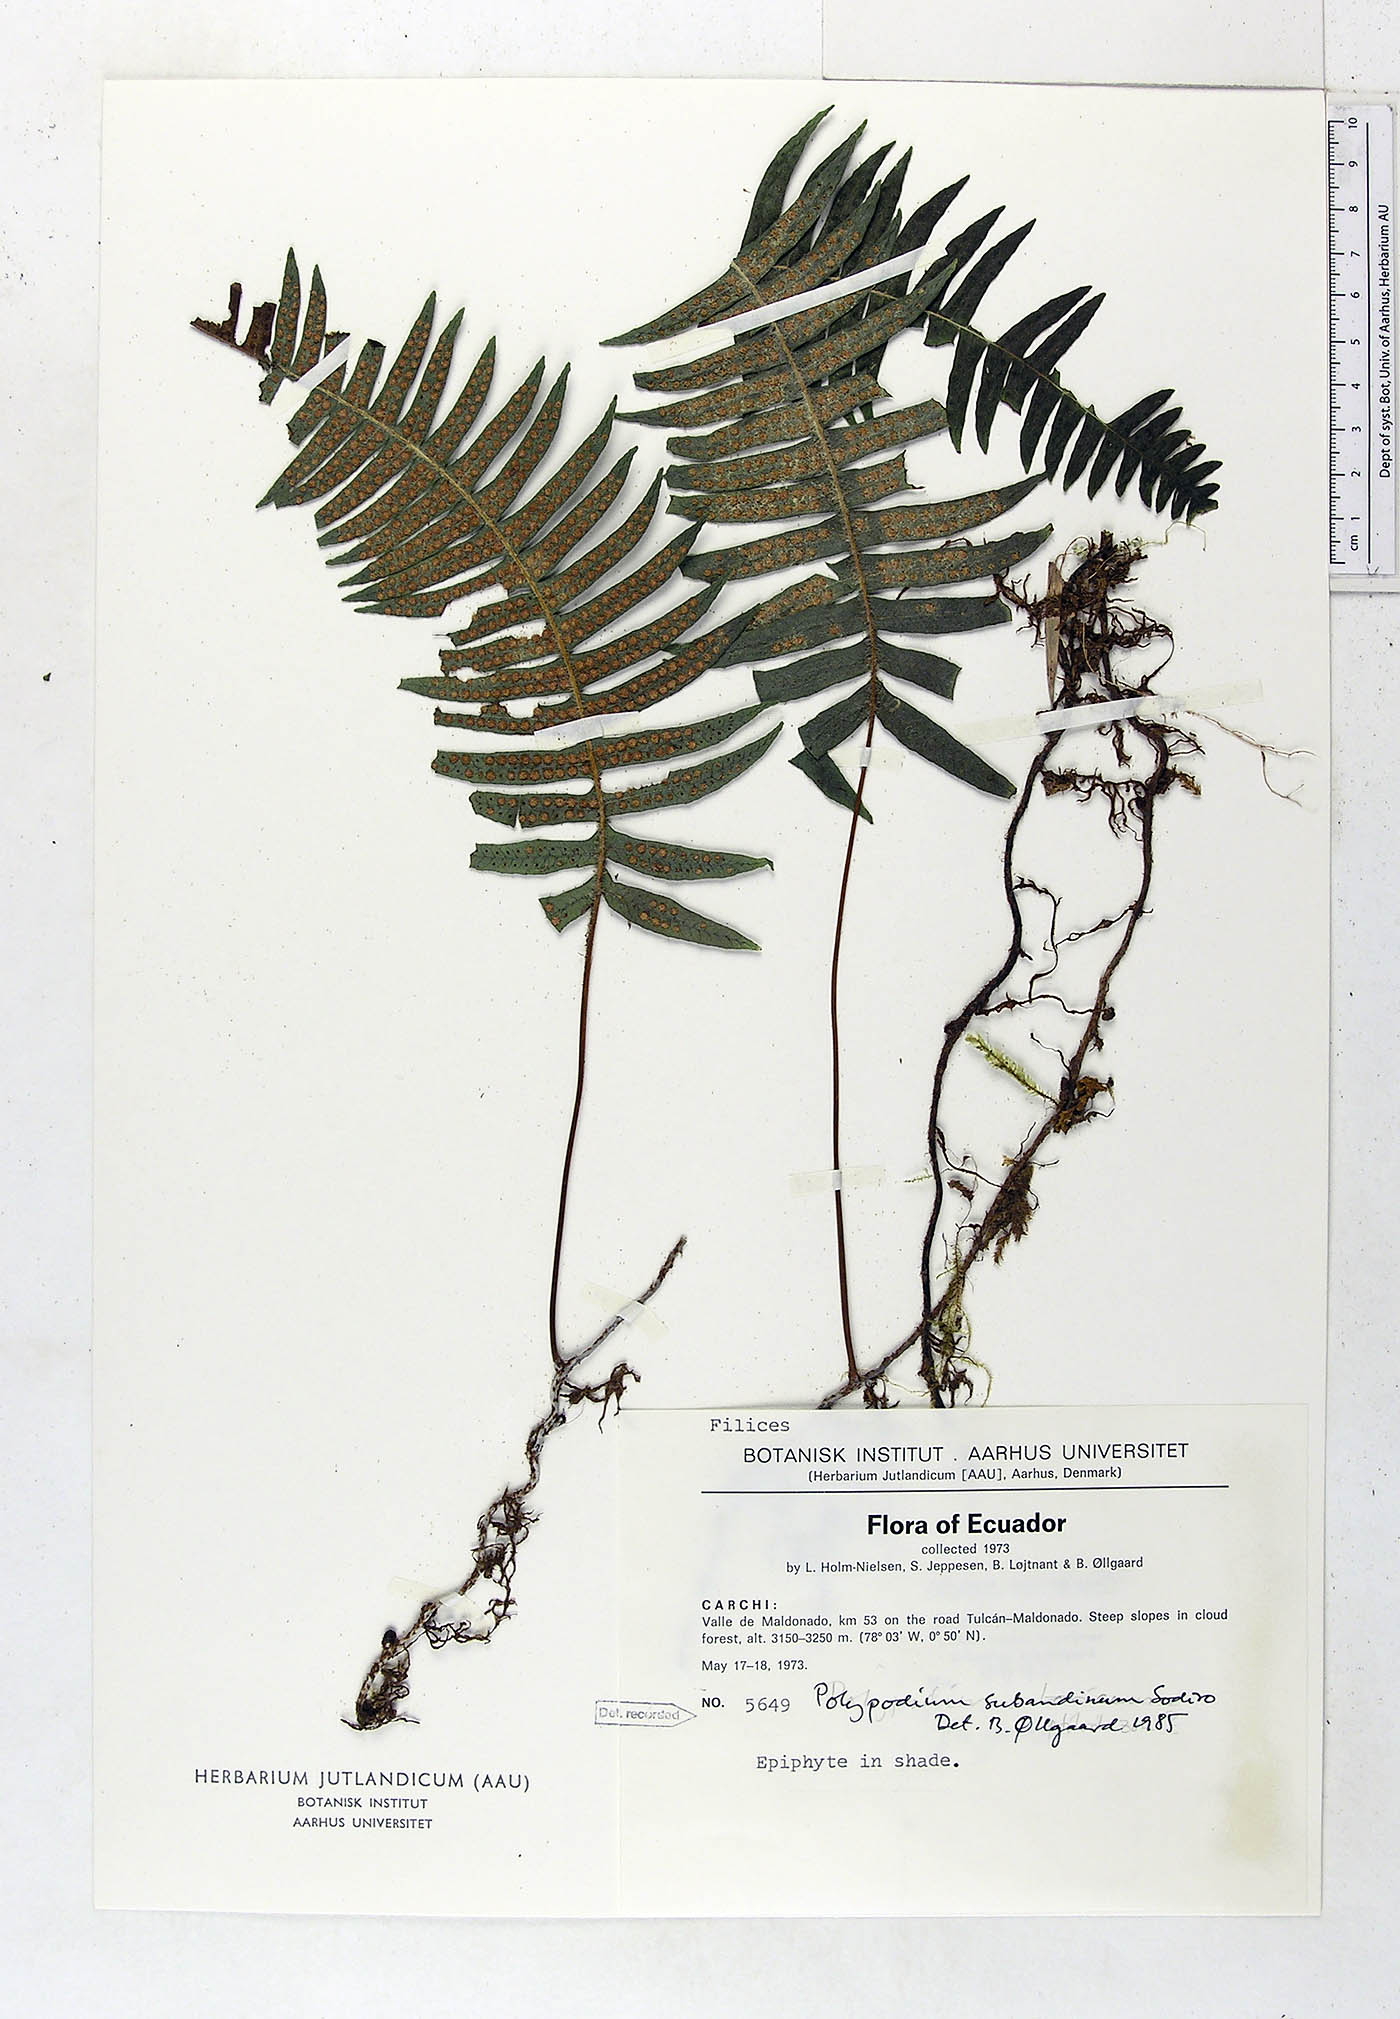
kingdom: Plantae
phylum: Tracheophyta
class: Polypodiopsida
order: Polypodiales
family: Polypodiaceae
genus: Serpocaulon
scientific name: Serpocaulon subandinum
